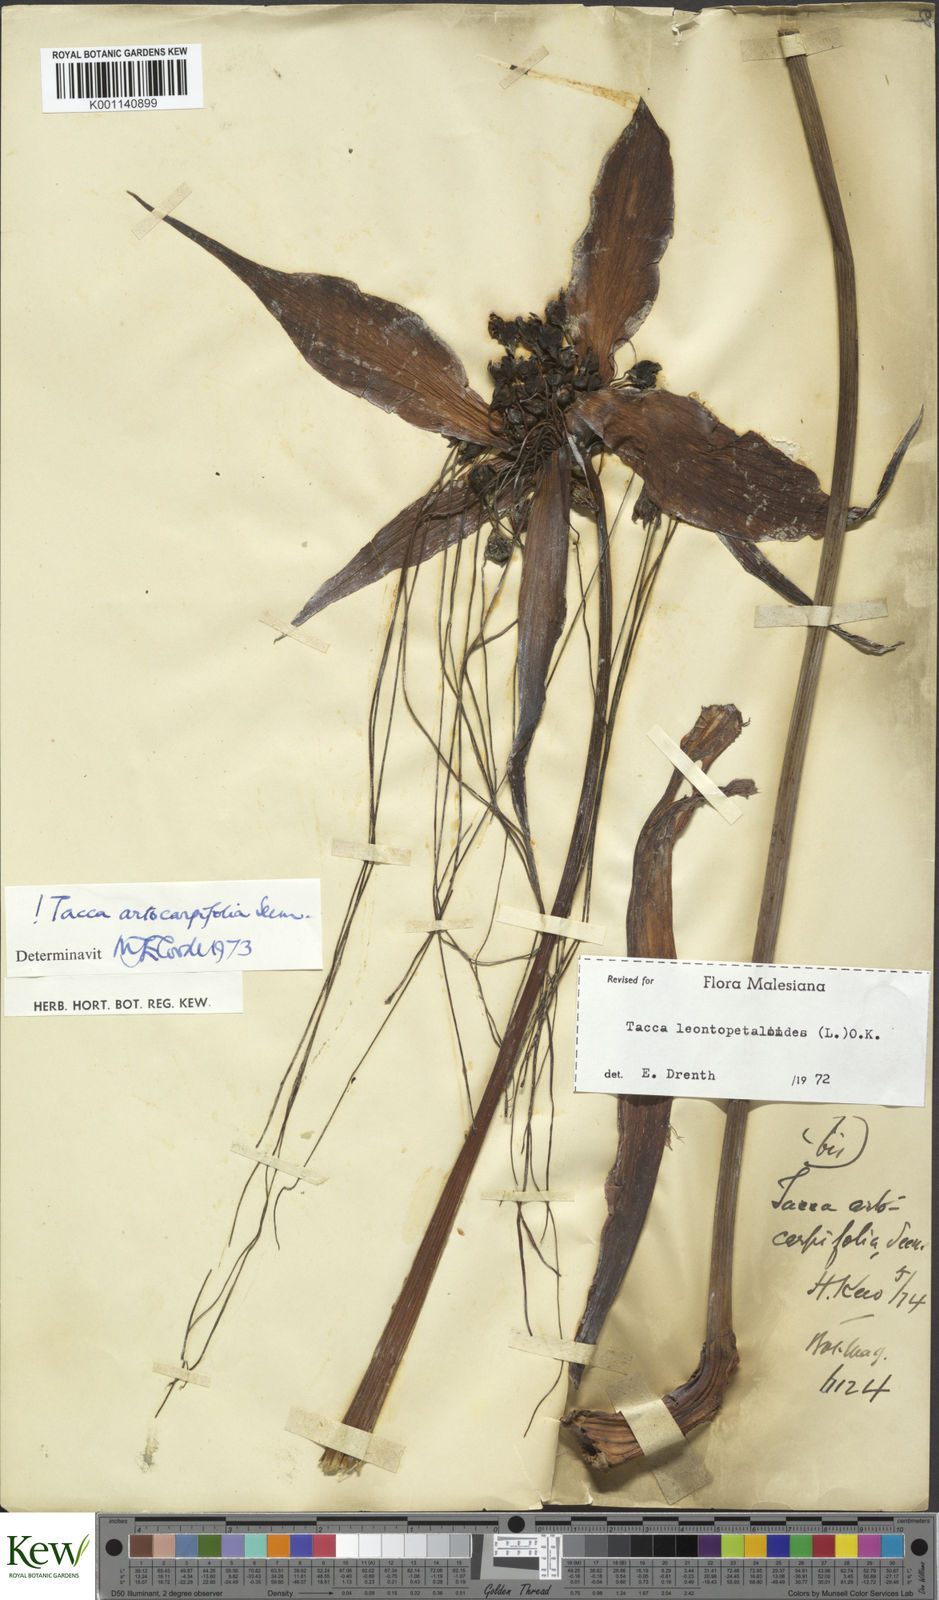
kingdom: Plantae
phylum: Tracheophyta
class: Liliopsida
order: Dioscoreales
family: Dioscoreaceae
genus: Tacca
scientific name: Tacca leontopetaloides
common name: Arrowroot
